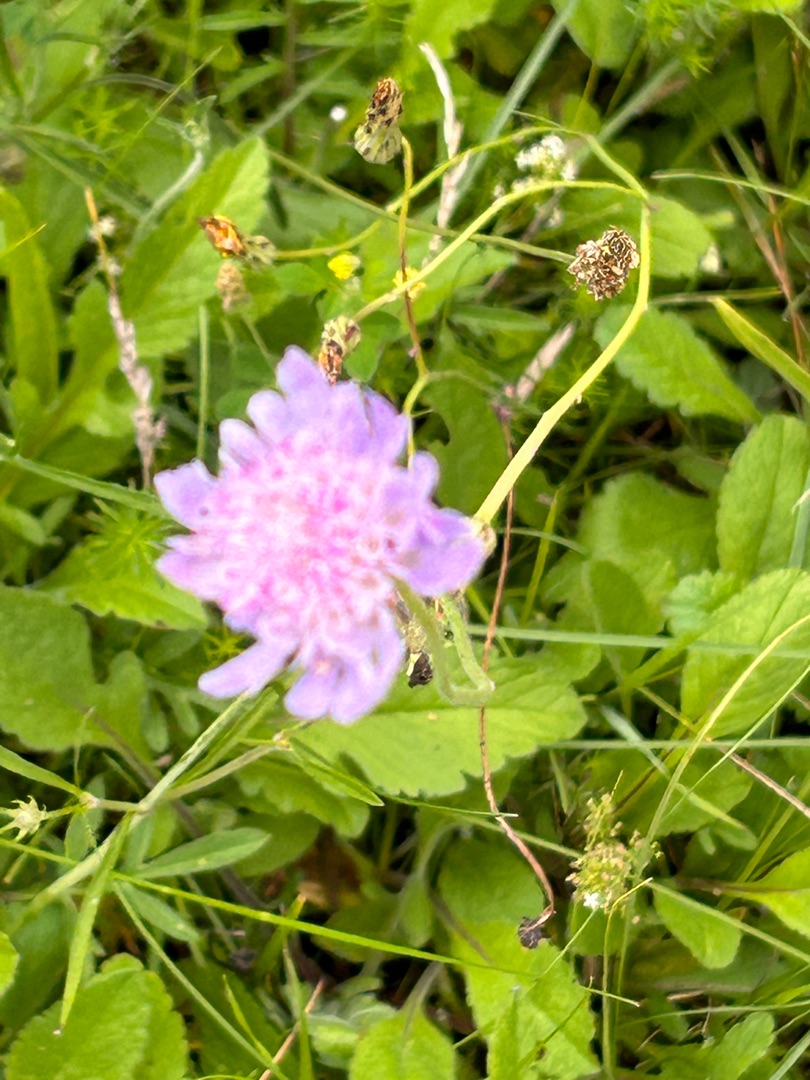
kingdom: Plantae
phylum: Tracheophyta
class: Magnoliopsida
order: Dipsacales
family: Caprifoliaceae
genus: Scabiosa
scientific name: Scabiosa columbaria
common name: Due-skabiose
